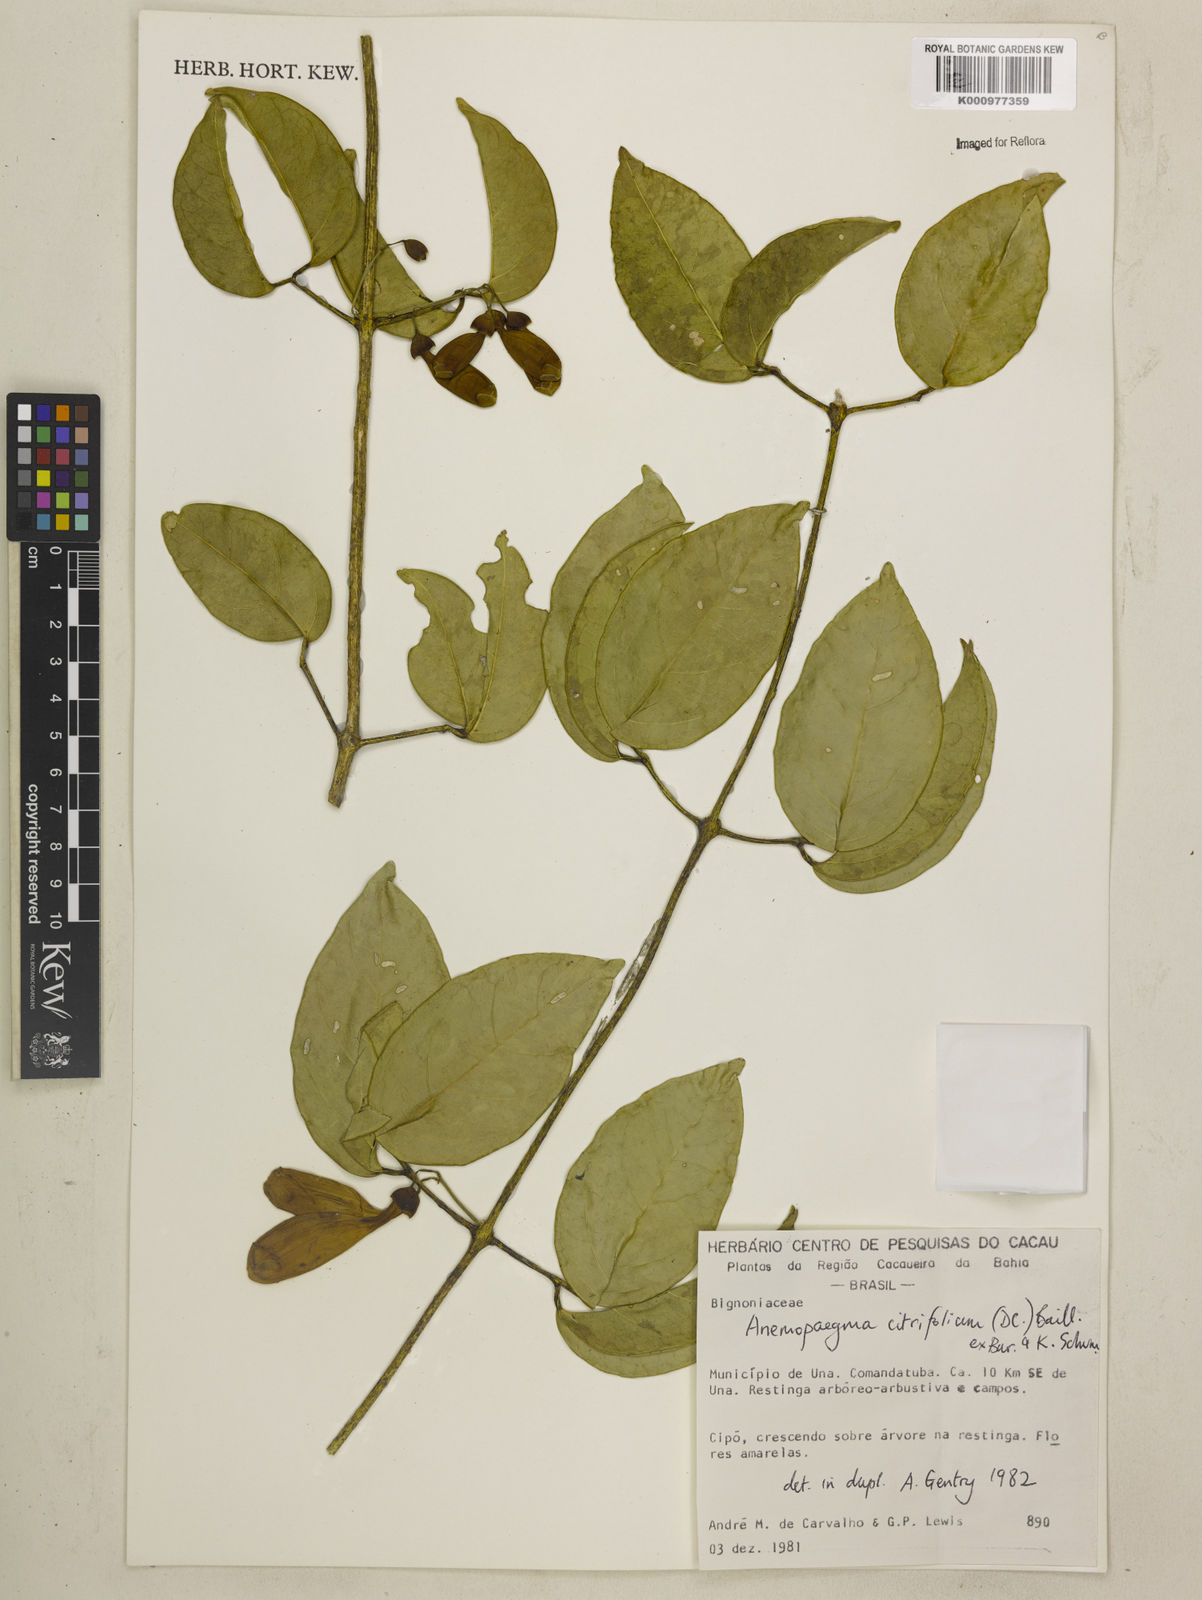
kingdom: Plantae
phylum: Tracheophyta
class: Magnoliopsida
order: Lamiales
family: Bignoniaceae
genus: Anemopaegma
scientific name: Anemopaegma citrinum
